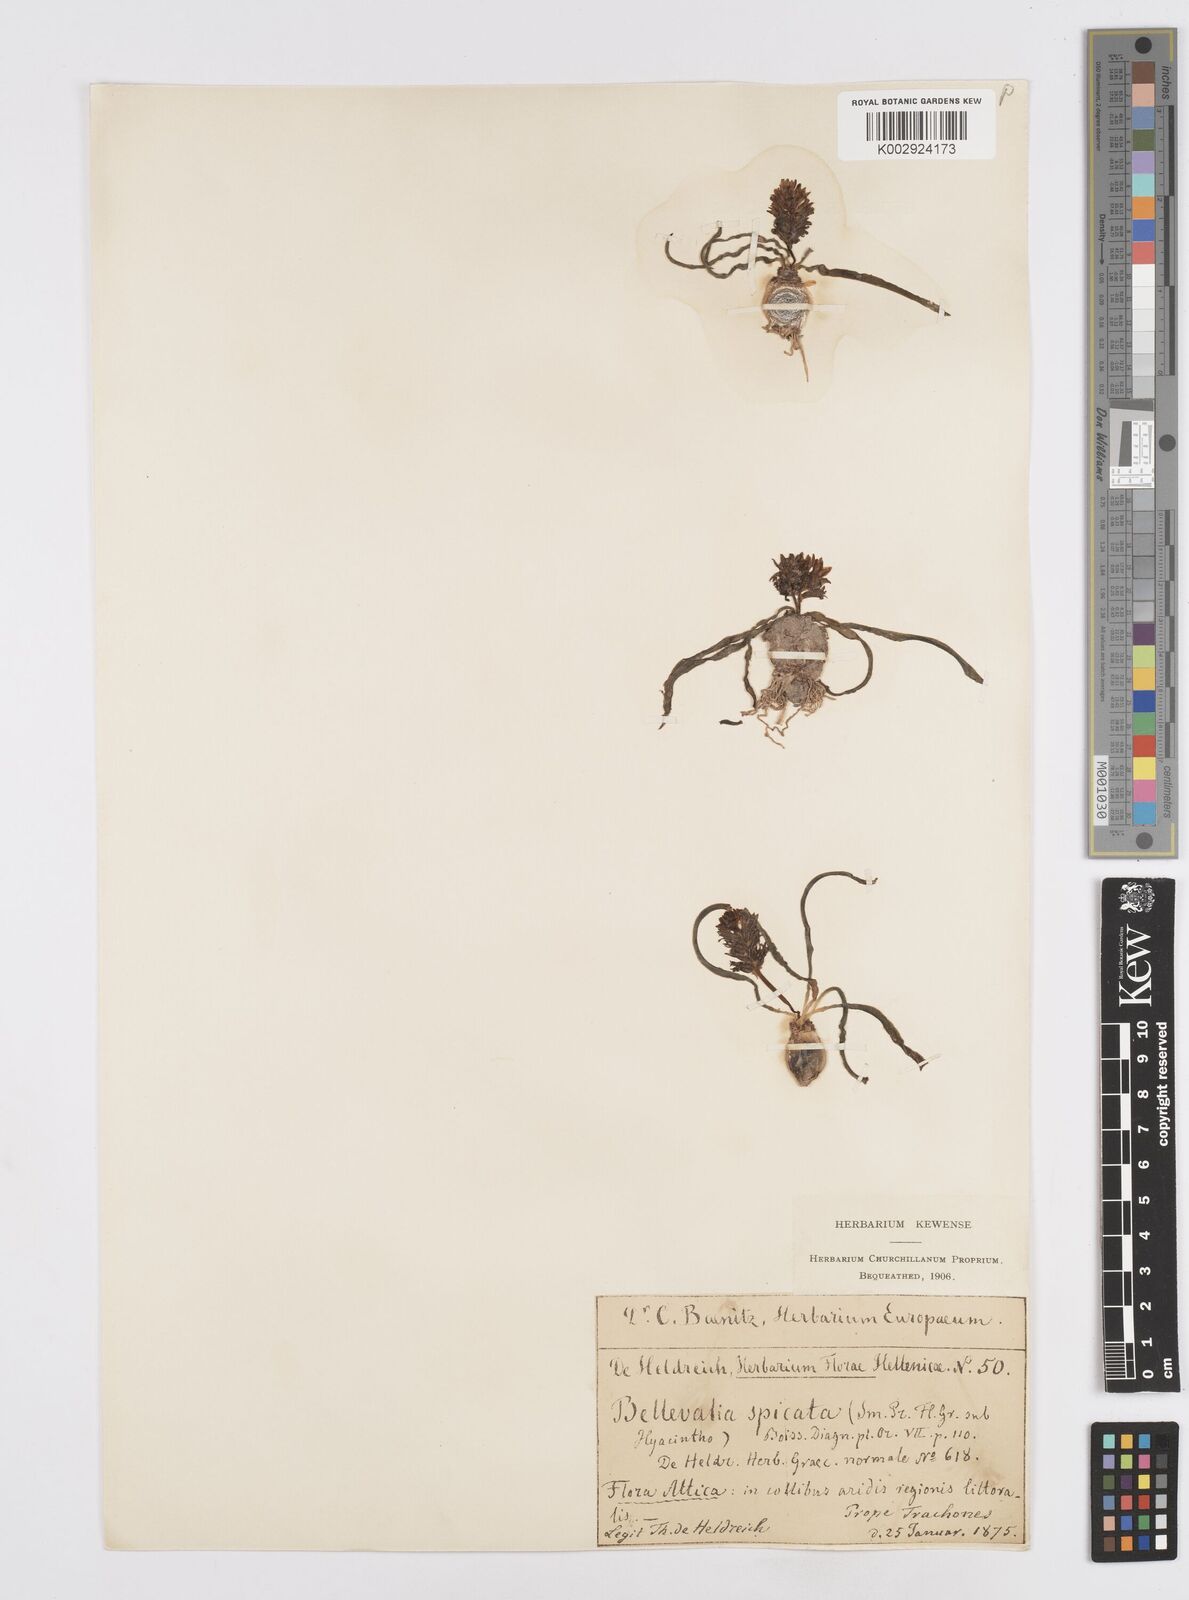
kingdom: Plantae
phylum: Tracheophyta
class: Liliopsida
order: Asparagales
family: Asparagaceae
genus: Bellevalia
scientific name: Bellevalia hyacinthoides
